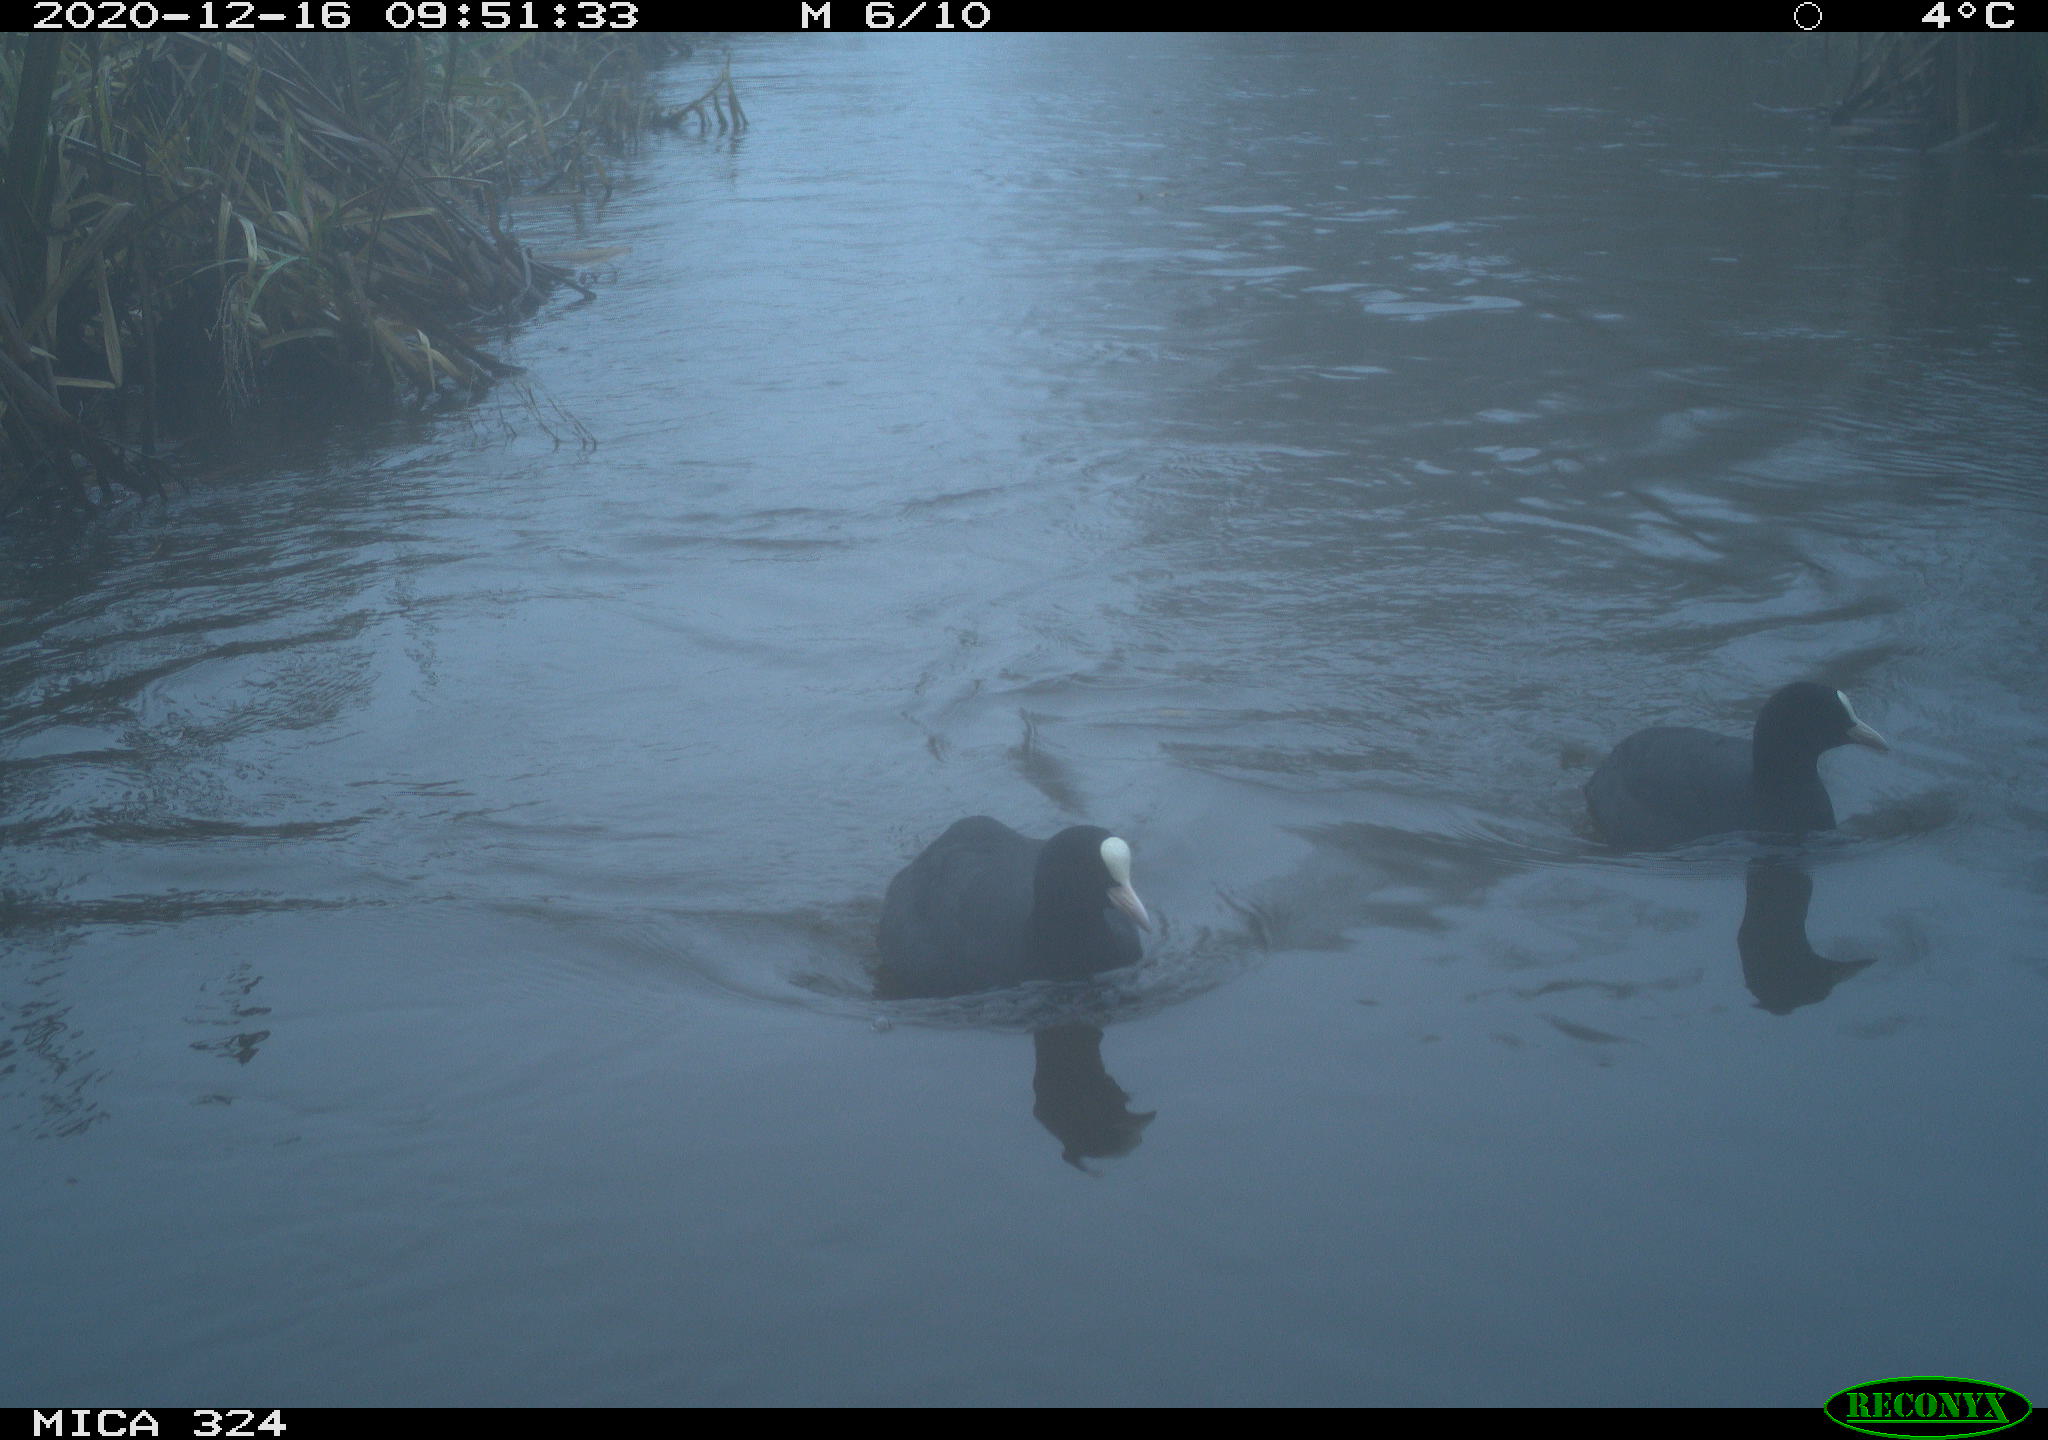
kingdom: Animalia
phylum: Chordata
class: Aves
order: Gruiformes
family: Rallidae
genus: Fulica
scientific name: Fulica atra
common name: Eurasian coot
